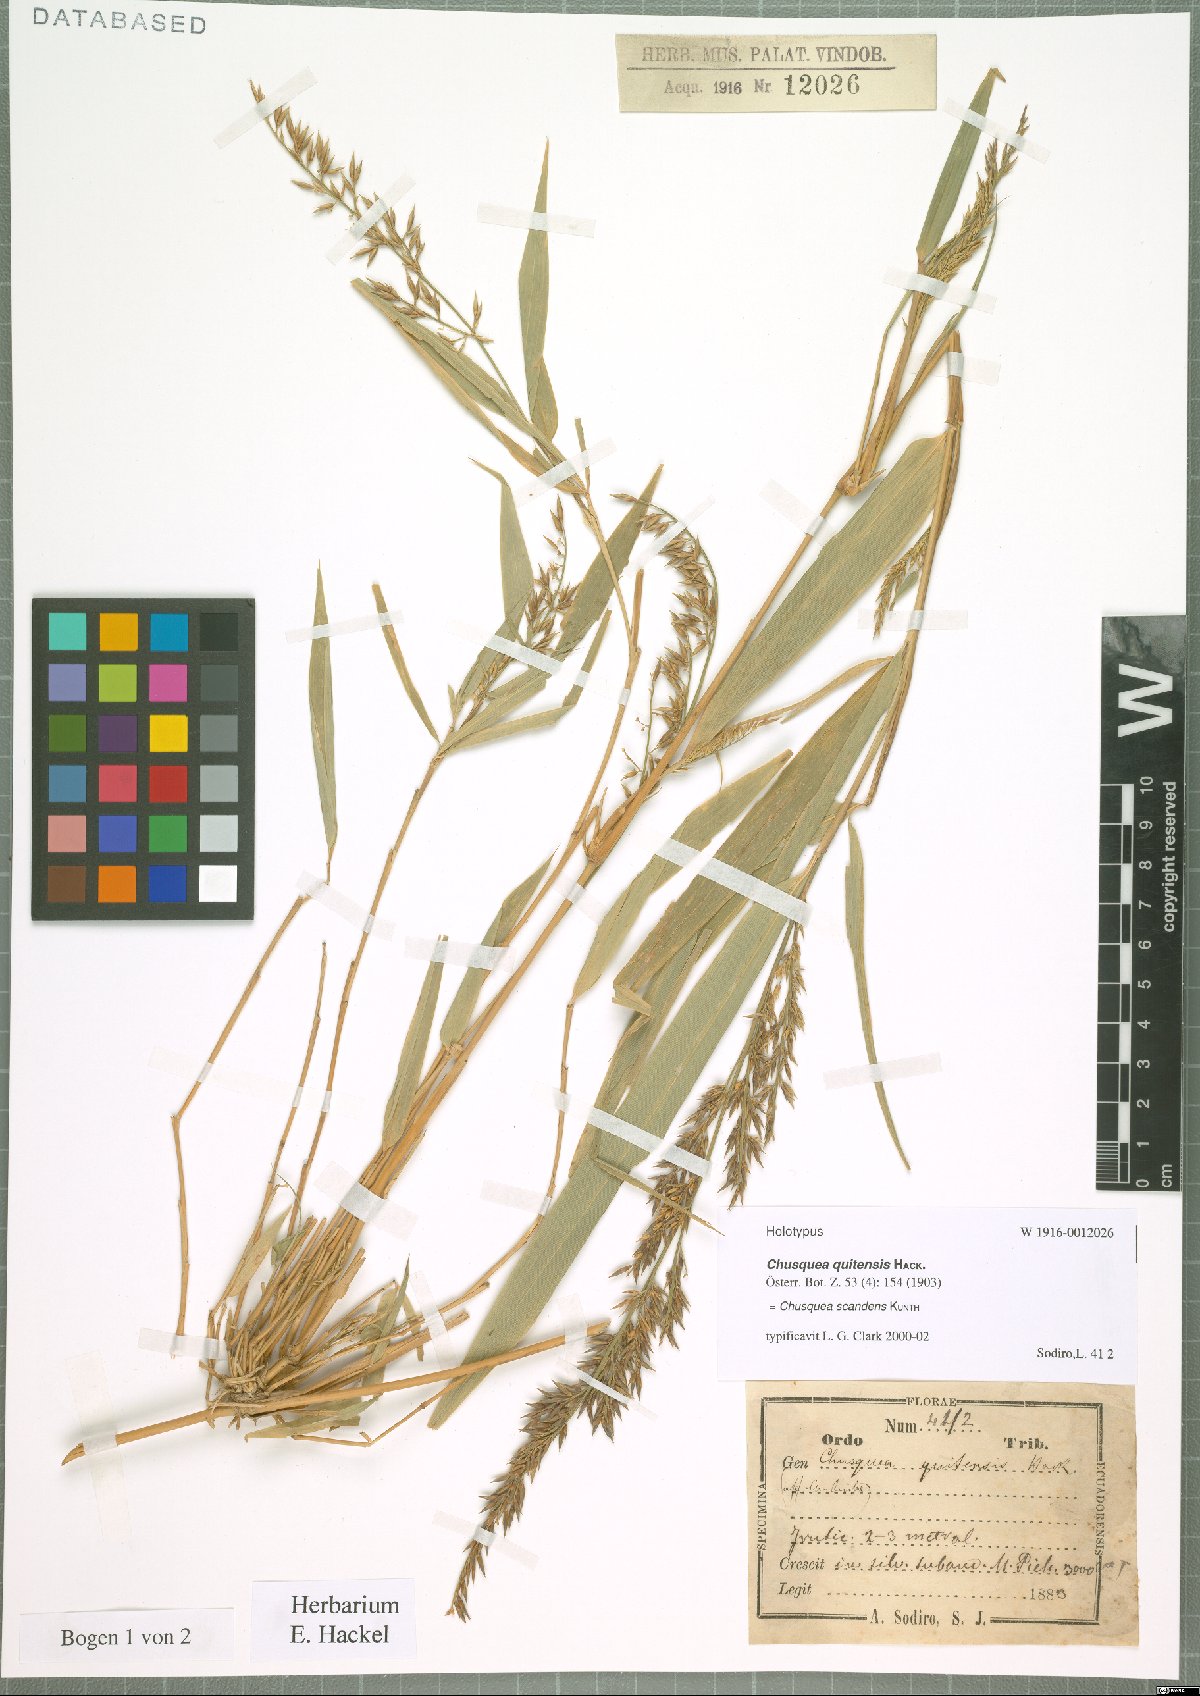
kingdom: Plantae
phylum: Tracheophyta
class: Liliopsida
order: Poales
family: Poaceae
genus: Chusquea
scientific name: Chusquea scandens
